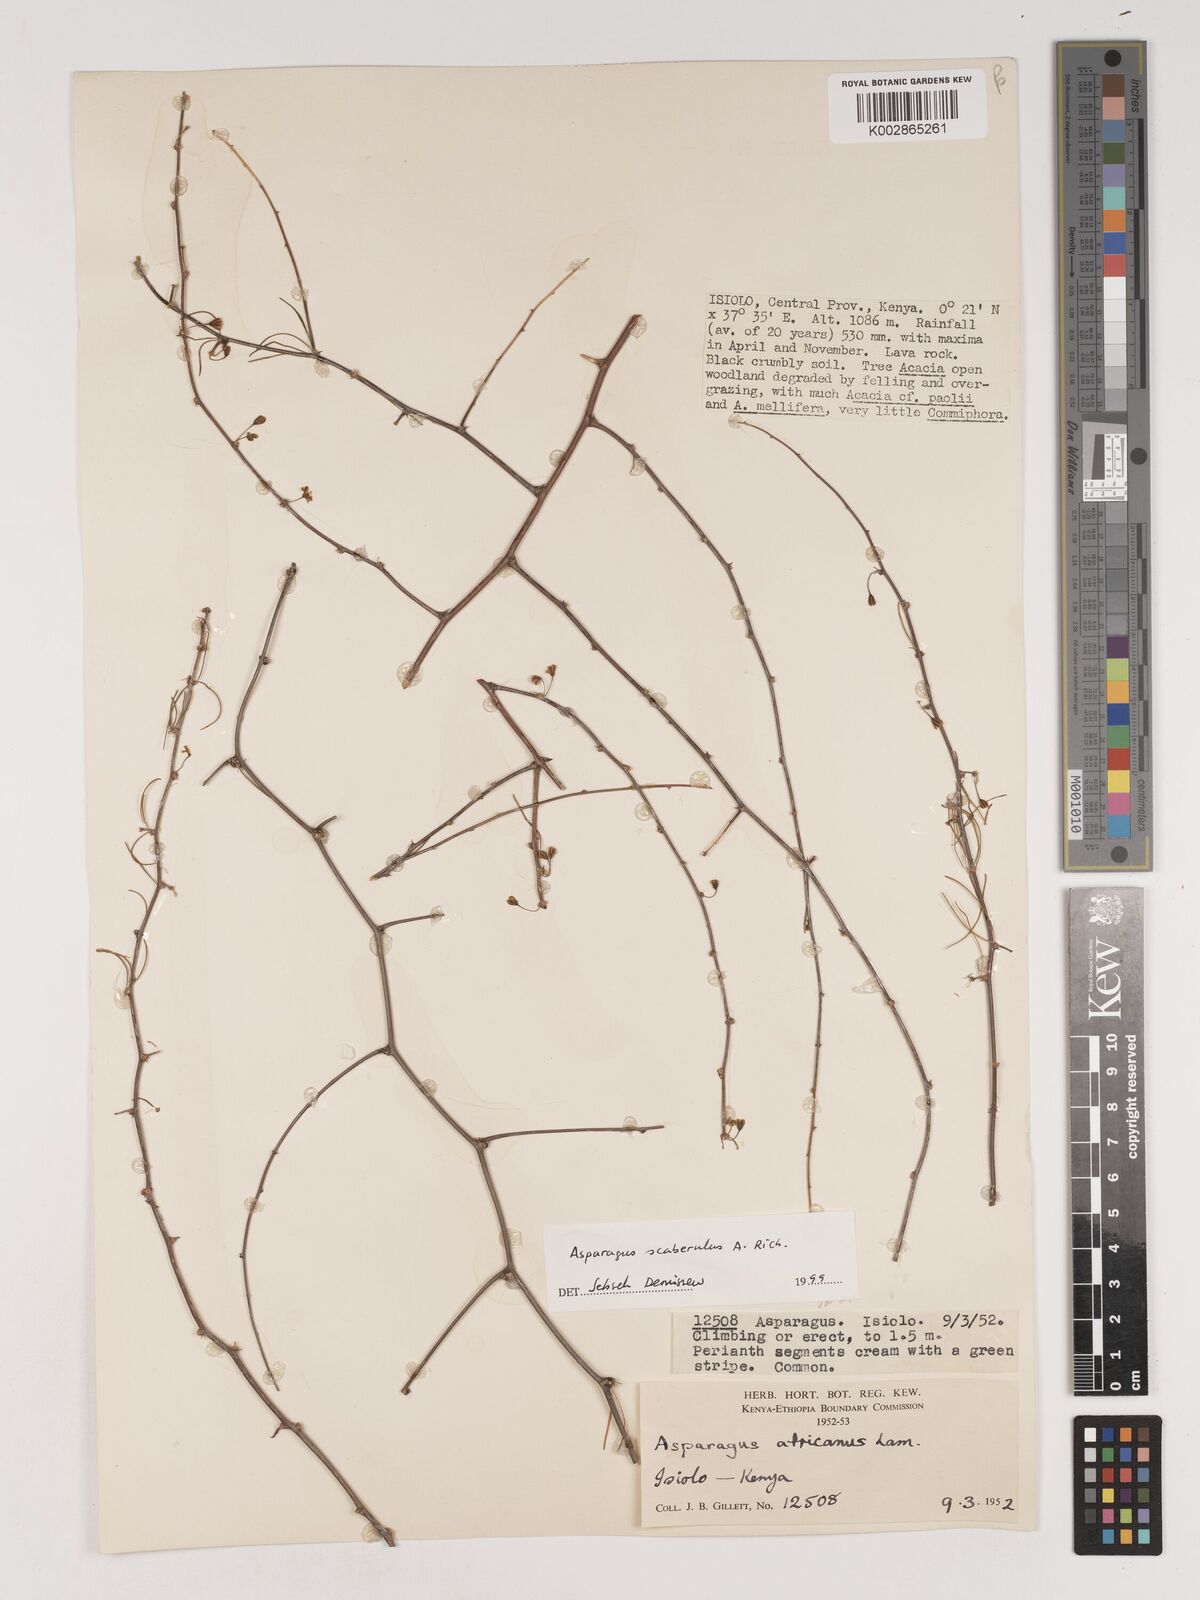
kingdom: Plantae
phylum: Tracheophyta
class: Liliopsida
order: Asparagales
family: Asparagaceae
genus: Asparagus
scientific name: Asparagus scaberulus
